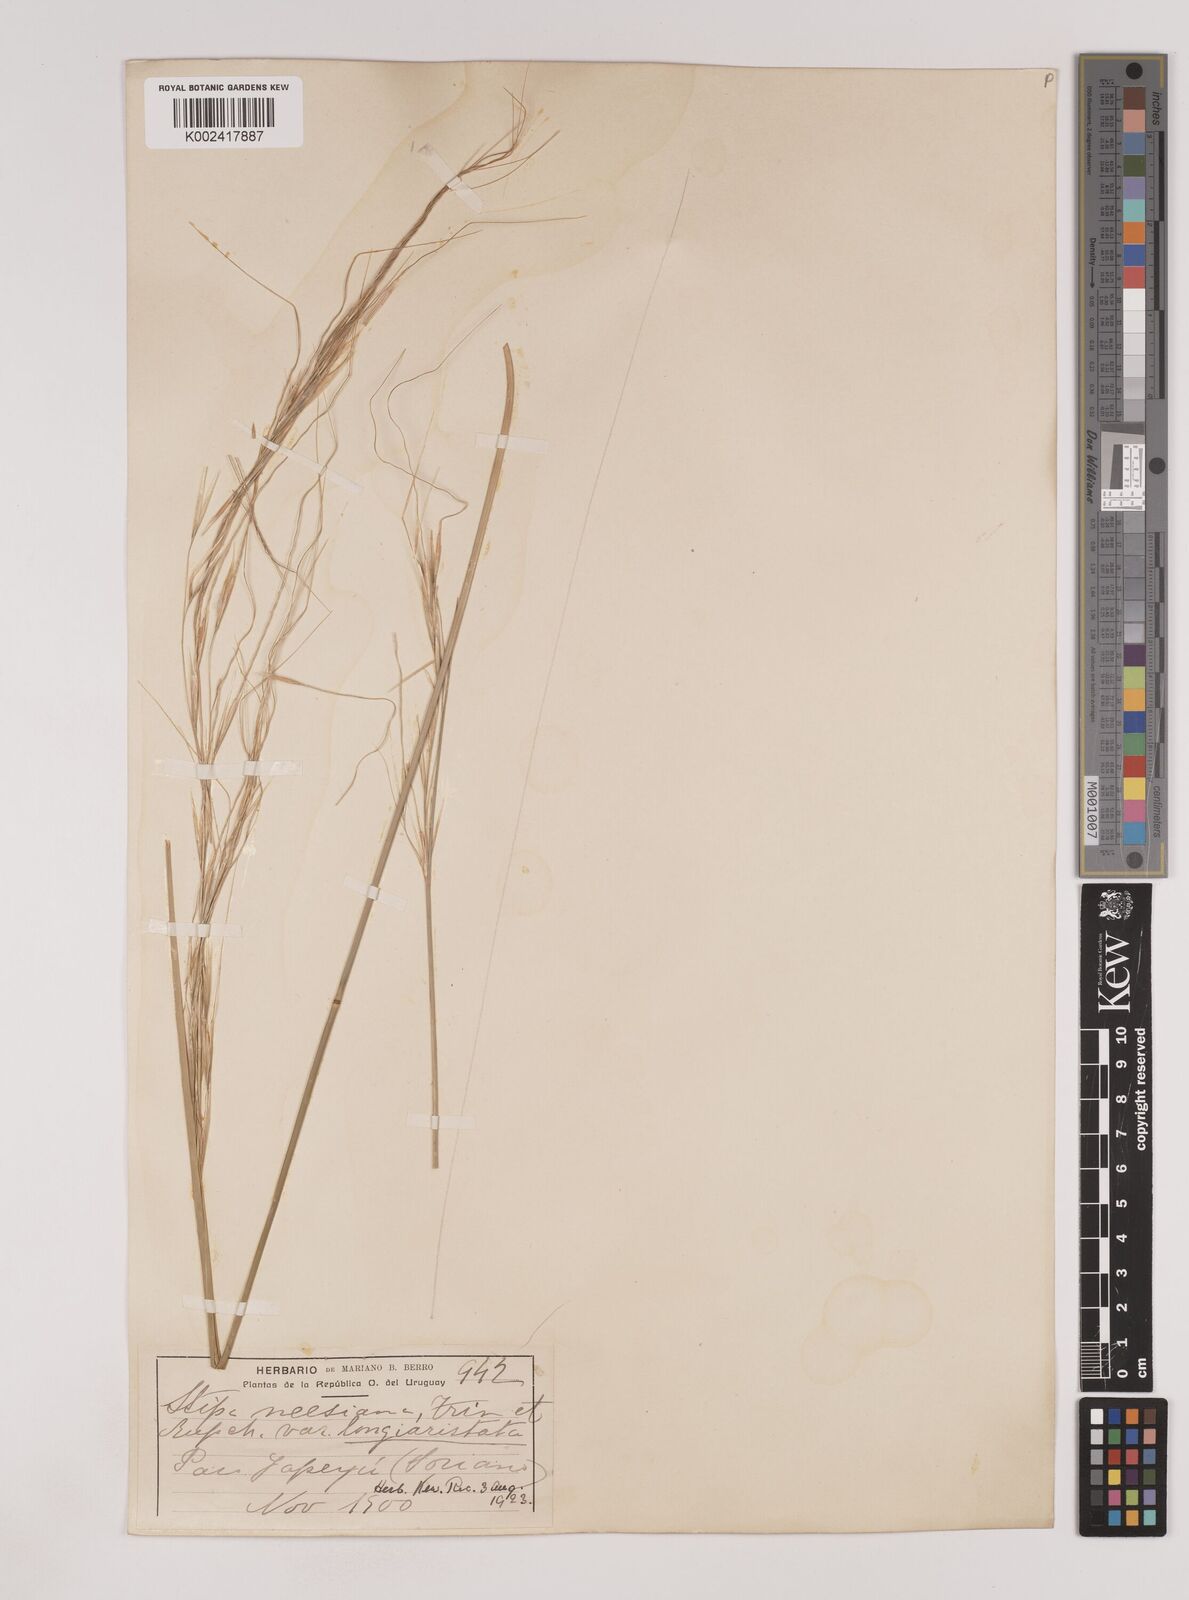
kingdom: Plantae
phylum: Tracheophyta
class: Liliopsida
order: Poales
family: Poaceae
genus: Nassella
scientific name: Nassella neesiana
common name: American needle-grass
